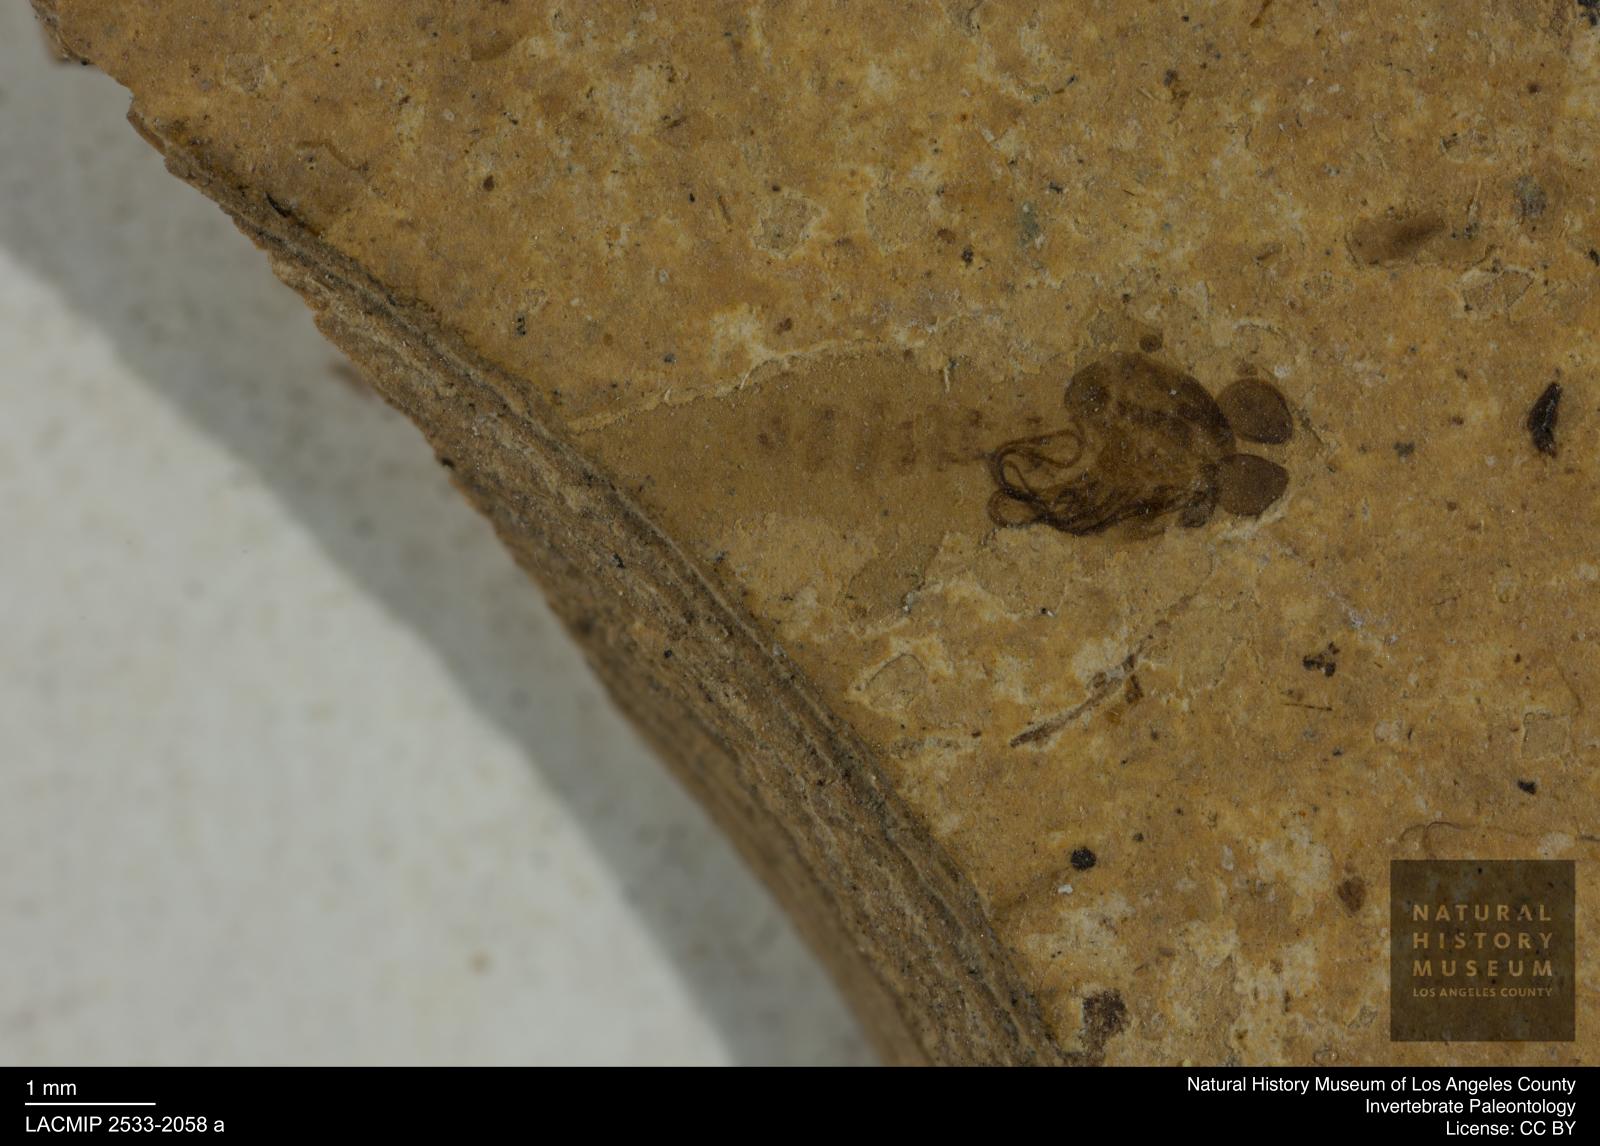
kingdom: Animalia
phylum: Arthropoda
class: Insecta
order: Diptera
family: Chironomidae
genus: Pelopiina
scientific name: Pelopiina
